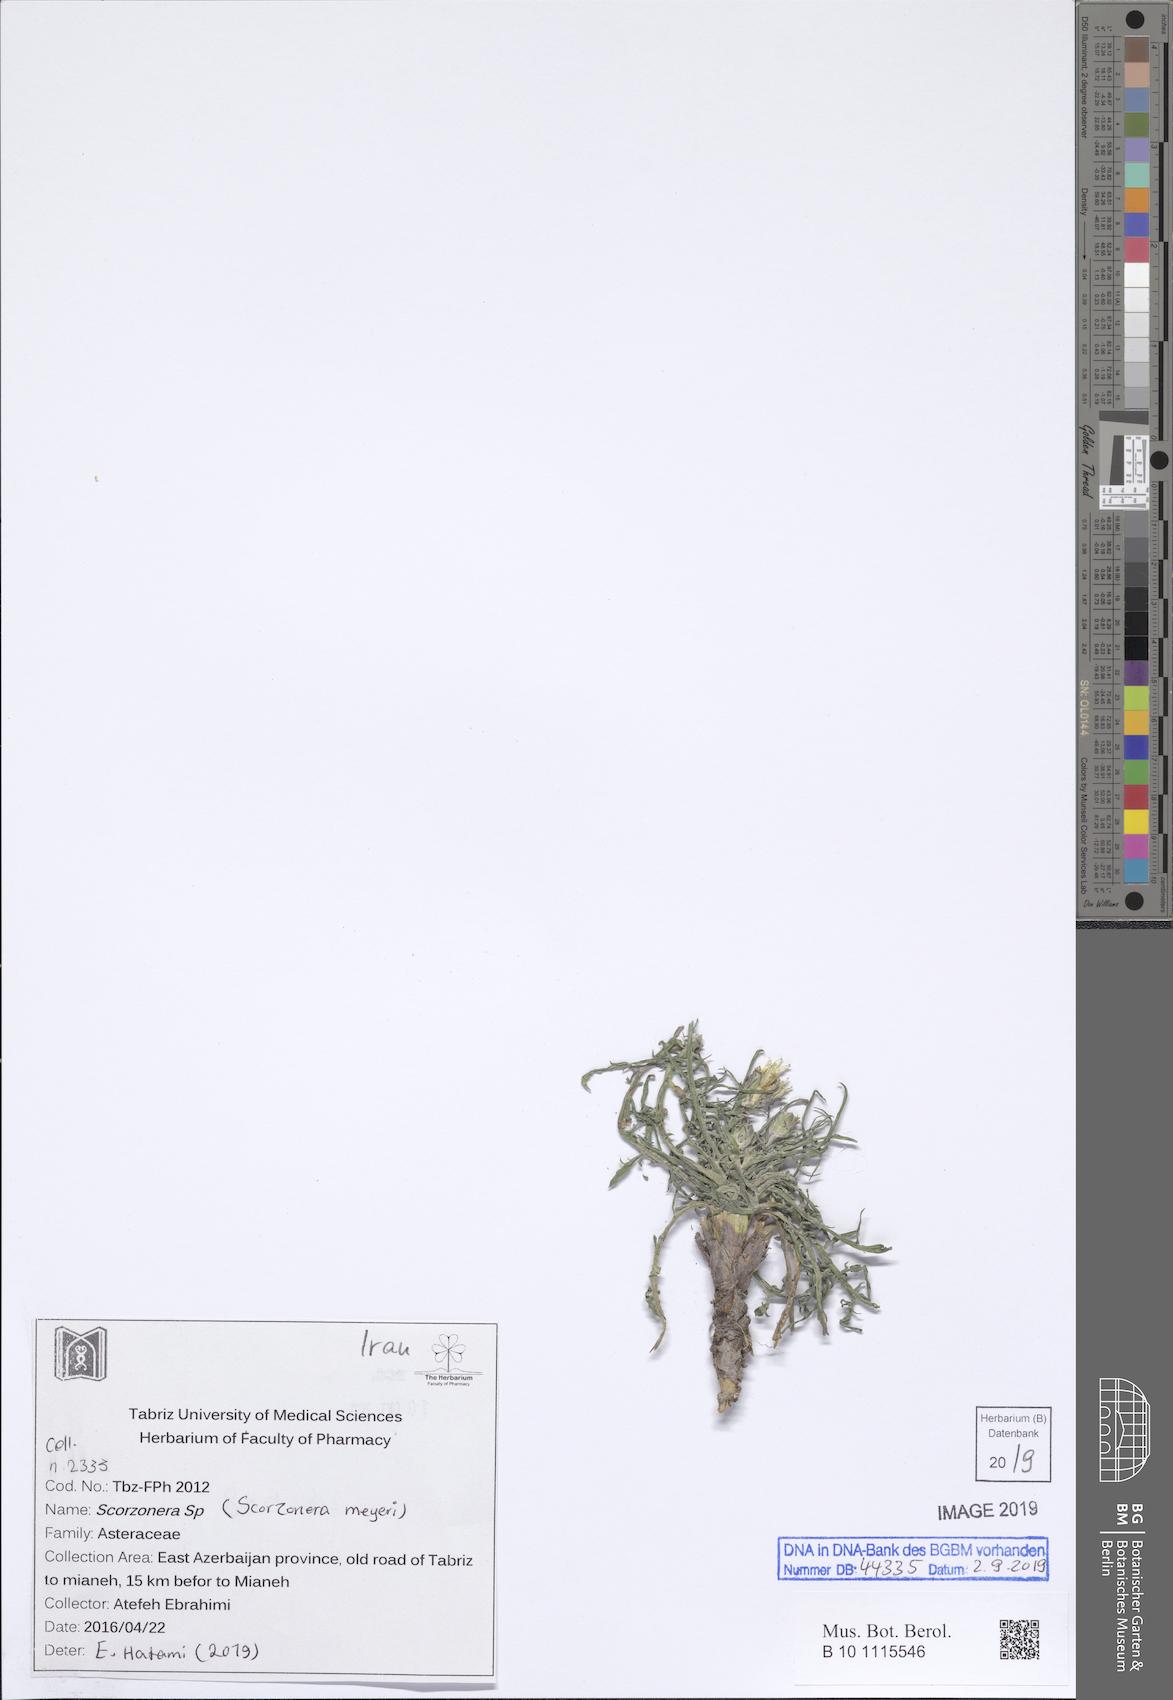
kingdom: Plantae
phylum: Tracheophyta
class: Magnoliopsida
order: Asterales
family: Asteraceae
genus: Scorzonera
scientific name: Scorzonera meyeri
